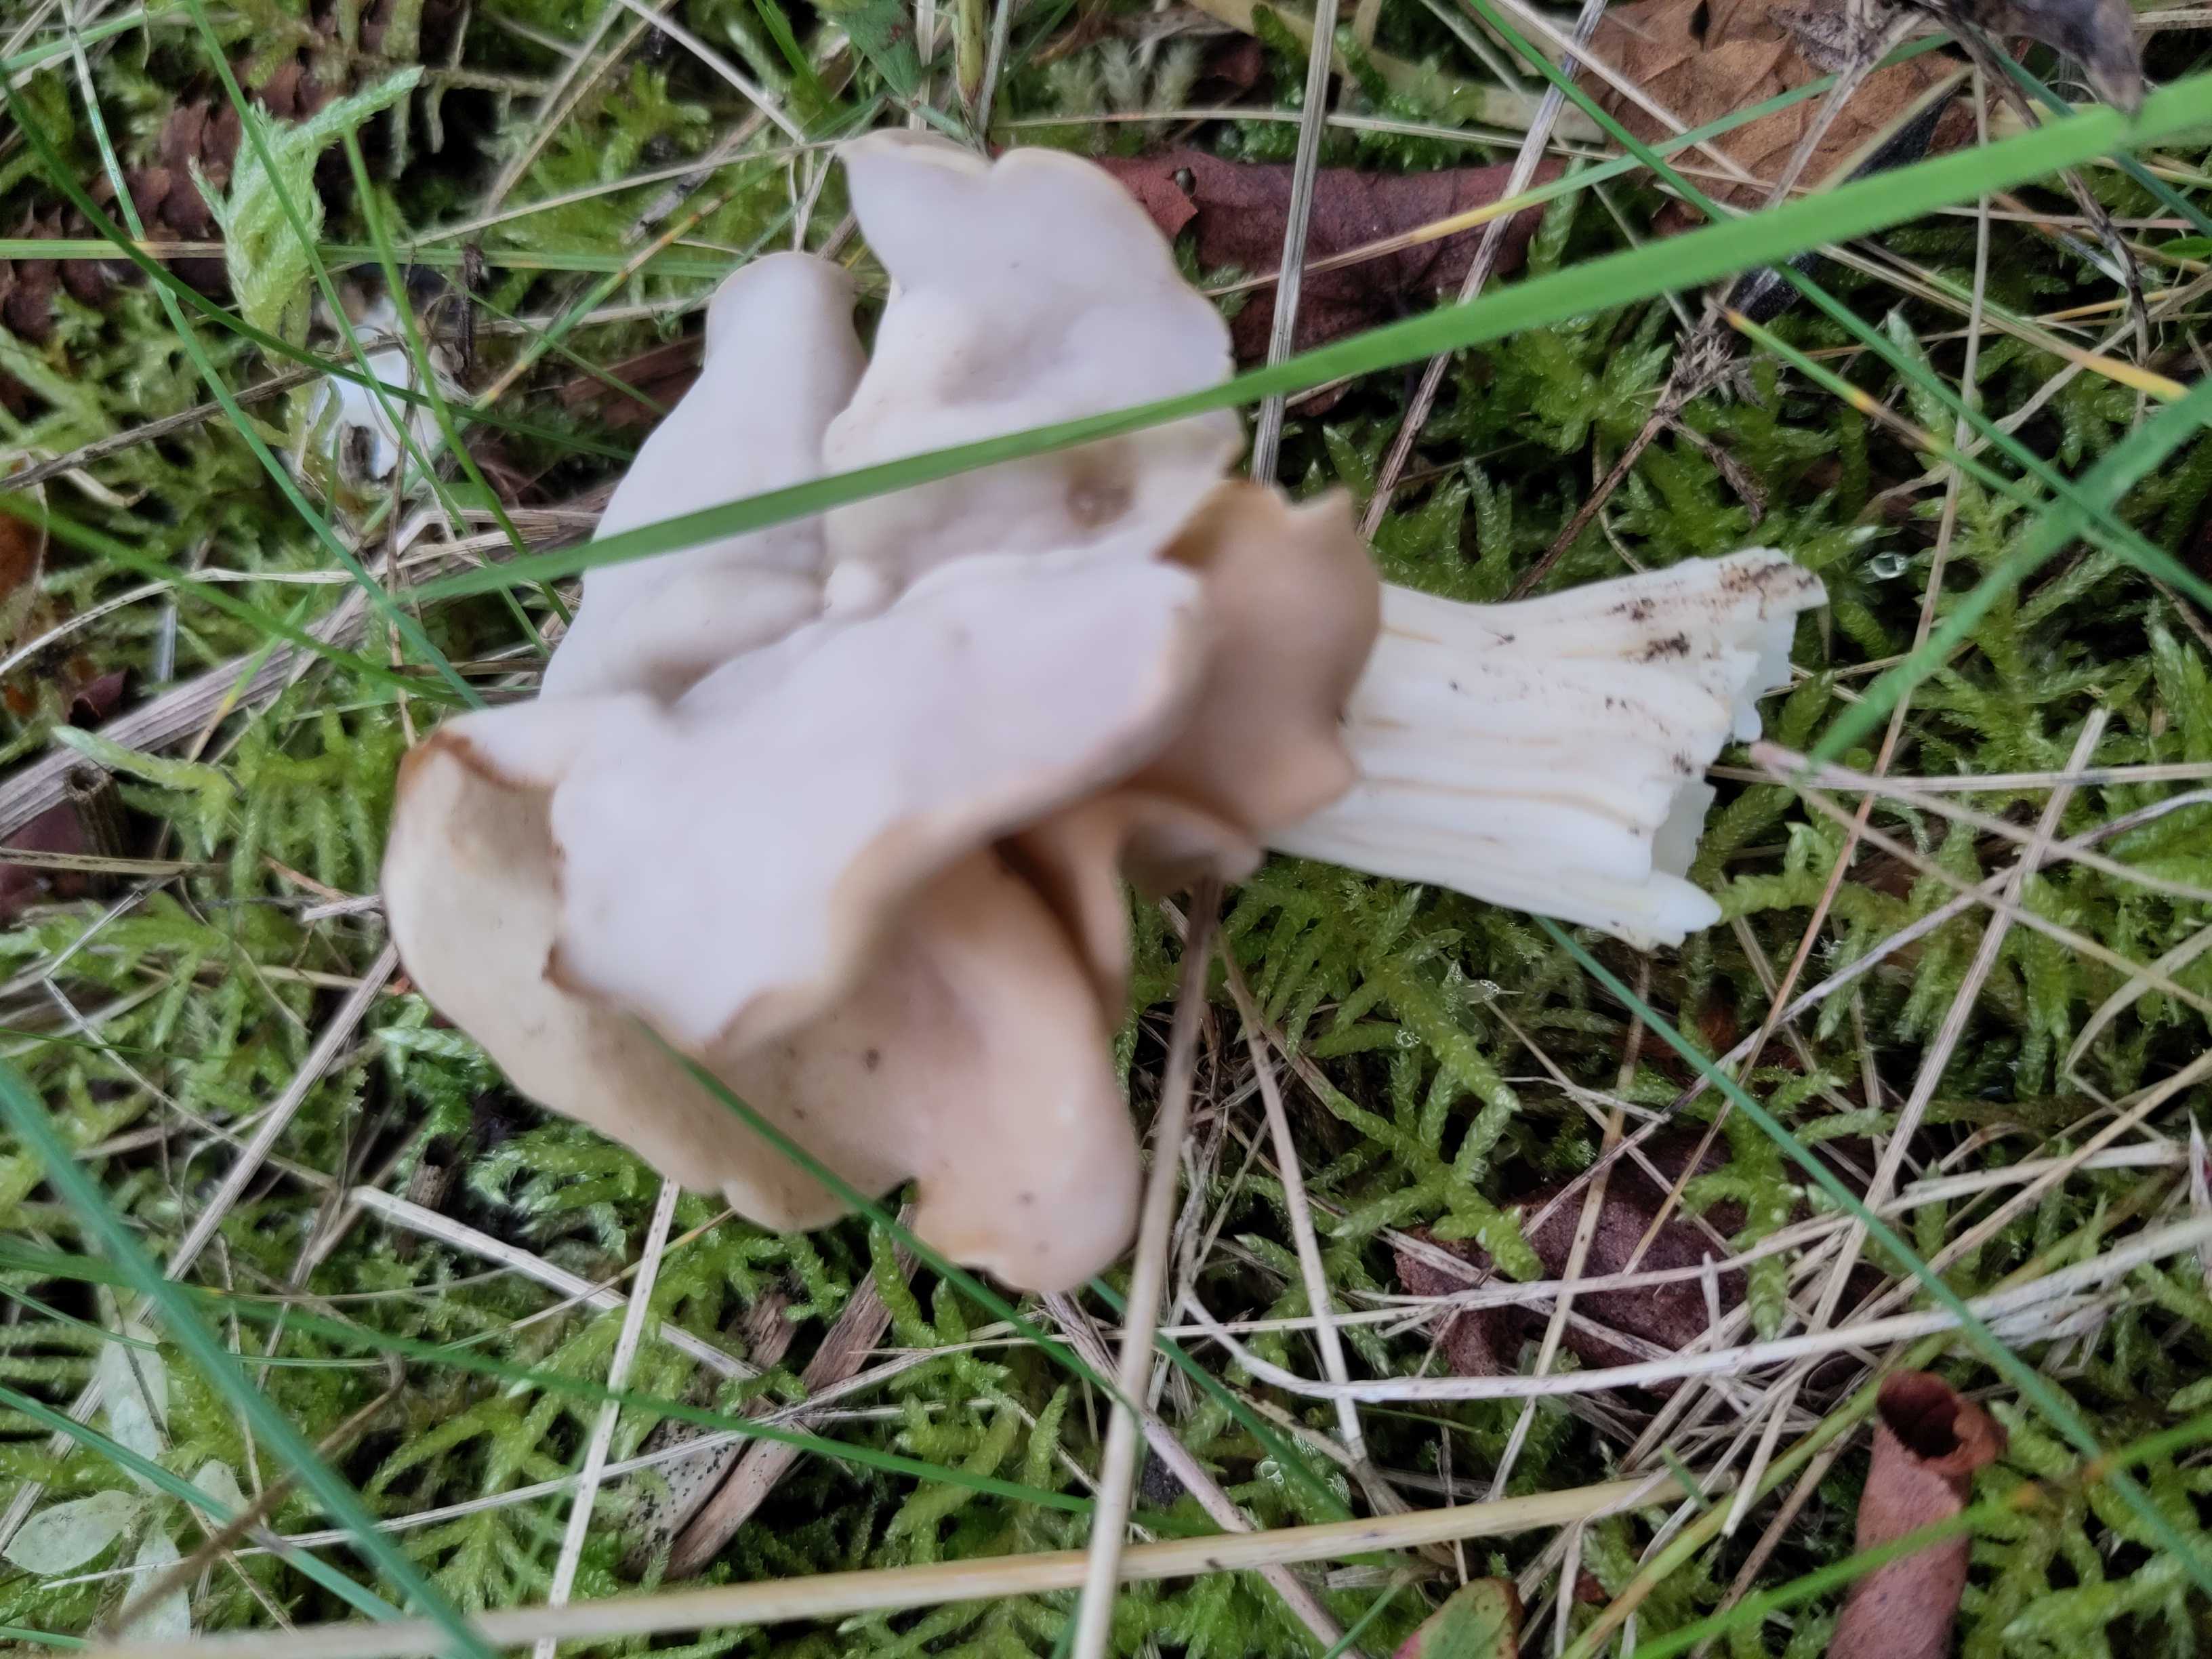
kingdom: Fungi
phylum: Ascomycota
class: Pezizomycetes
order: Pezizales
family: Helvellaceae
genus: Helvella
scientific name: Helvella crispa
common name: kruset foldhat
